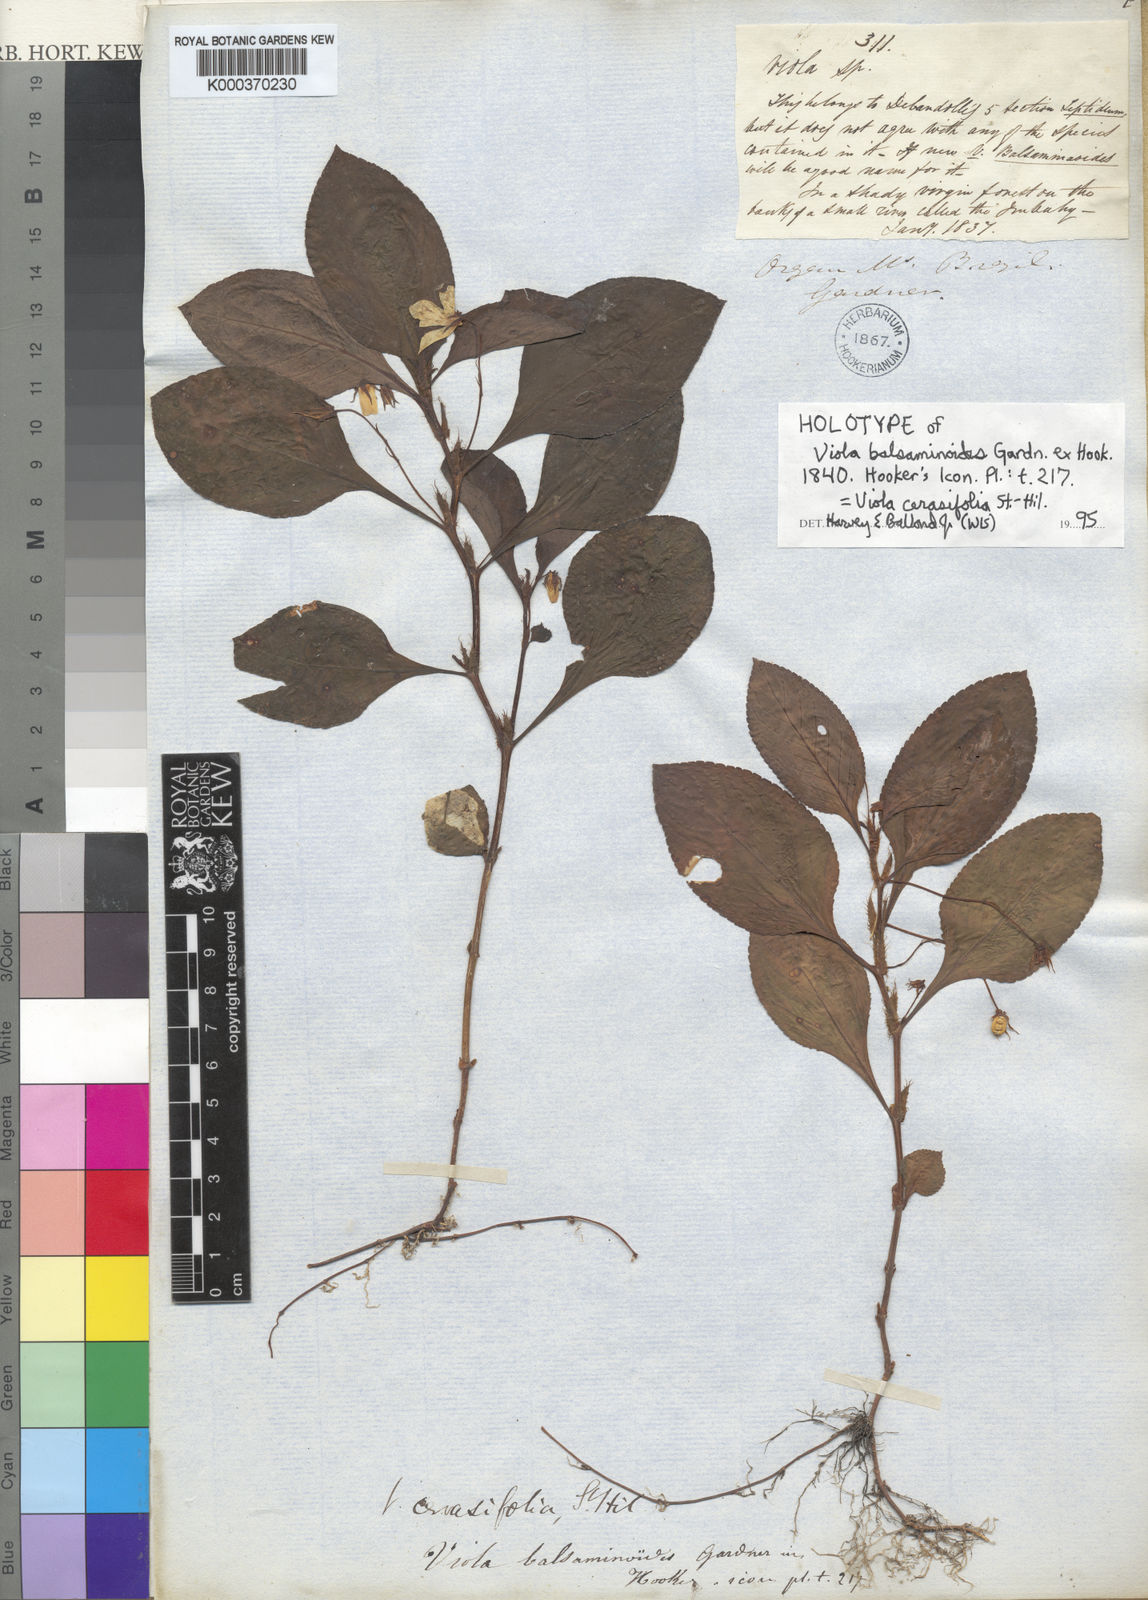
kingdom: Plantae
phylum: Tracheophyta
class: Magnoliopsida
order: Malpighiales
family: Violaceae
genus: Viola
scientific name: Viola cerasifolia
